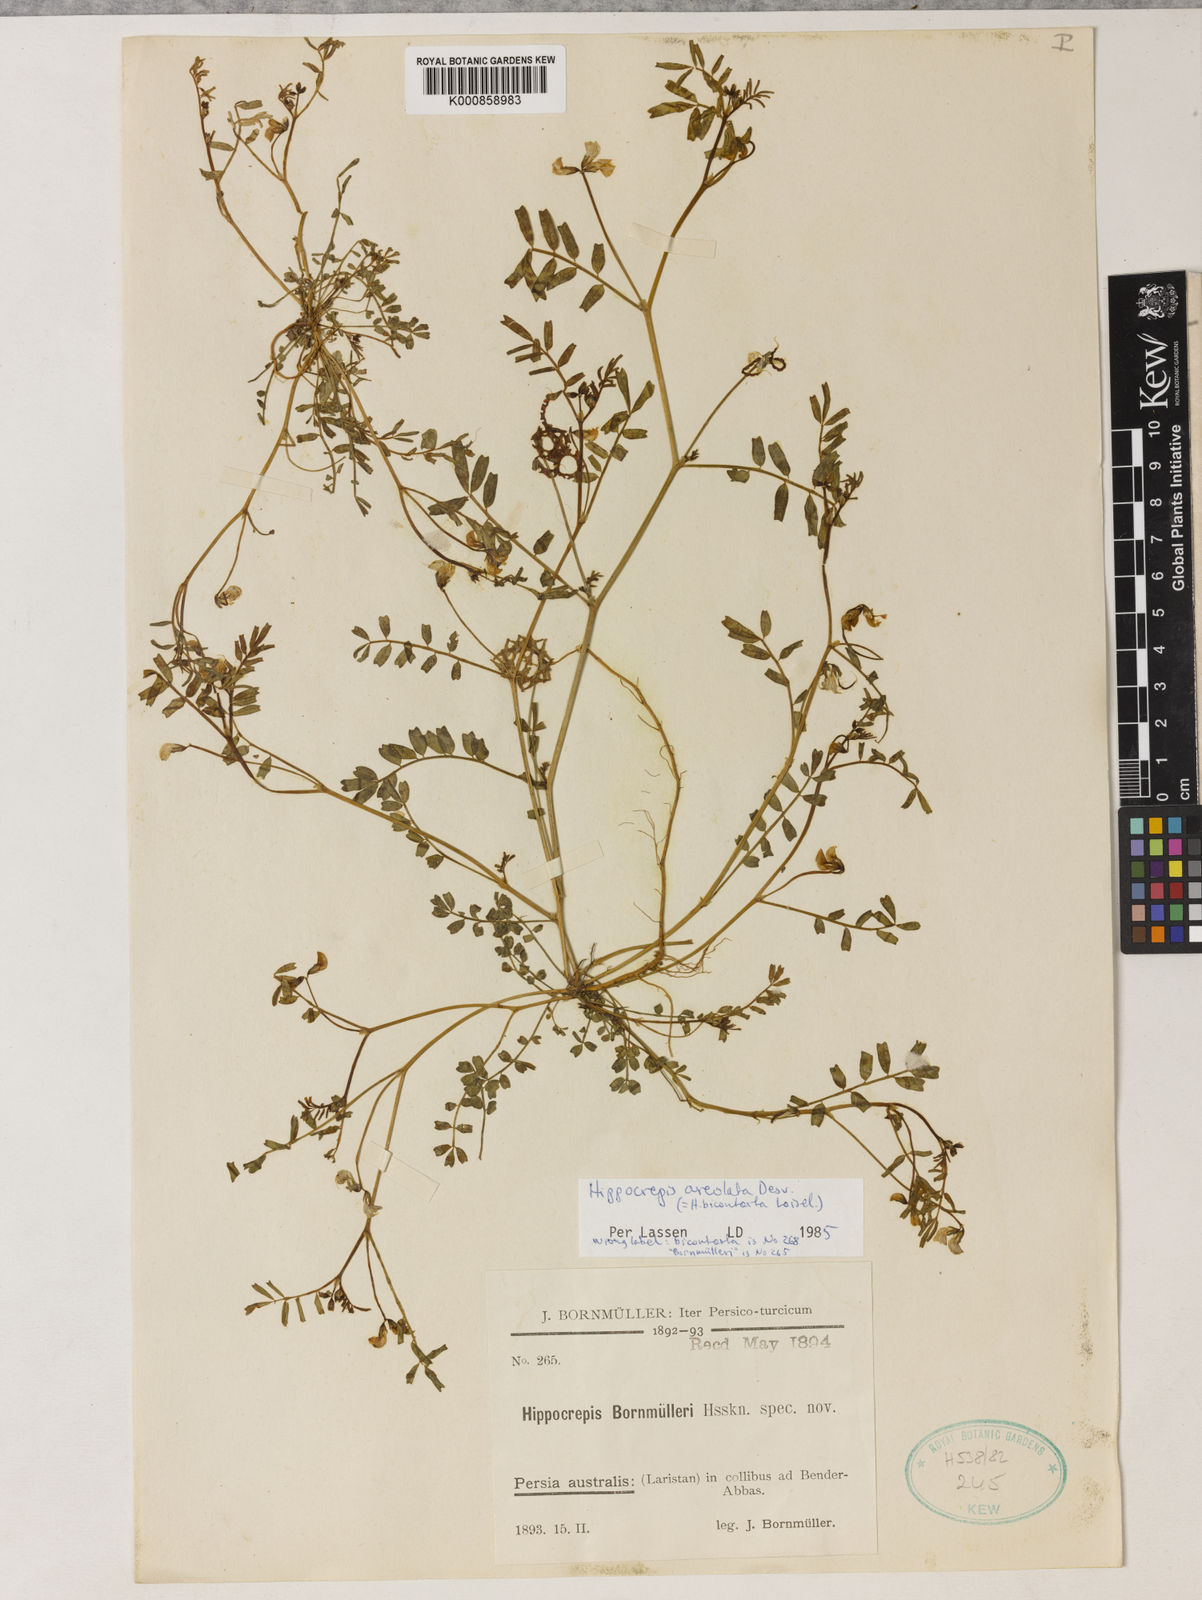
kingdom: Plantae
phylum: Tracheophyta
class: Magnoliopsida
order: Fabales
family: Fabaceae
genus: Hippocrepis
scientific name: Hippocrepis constricta
